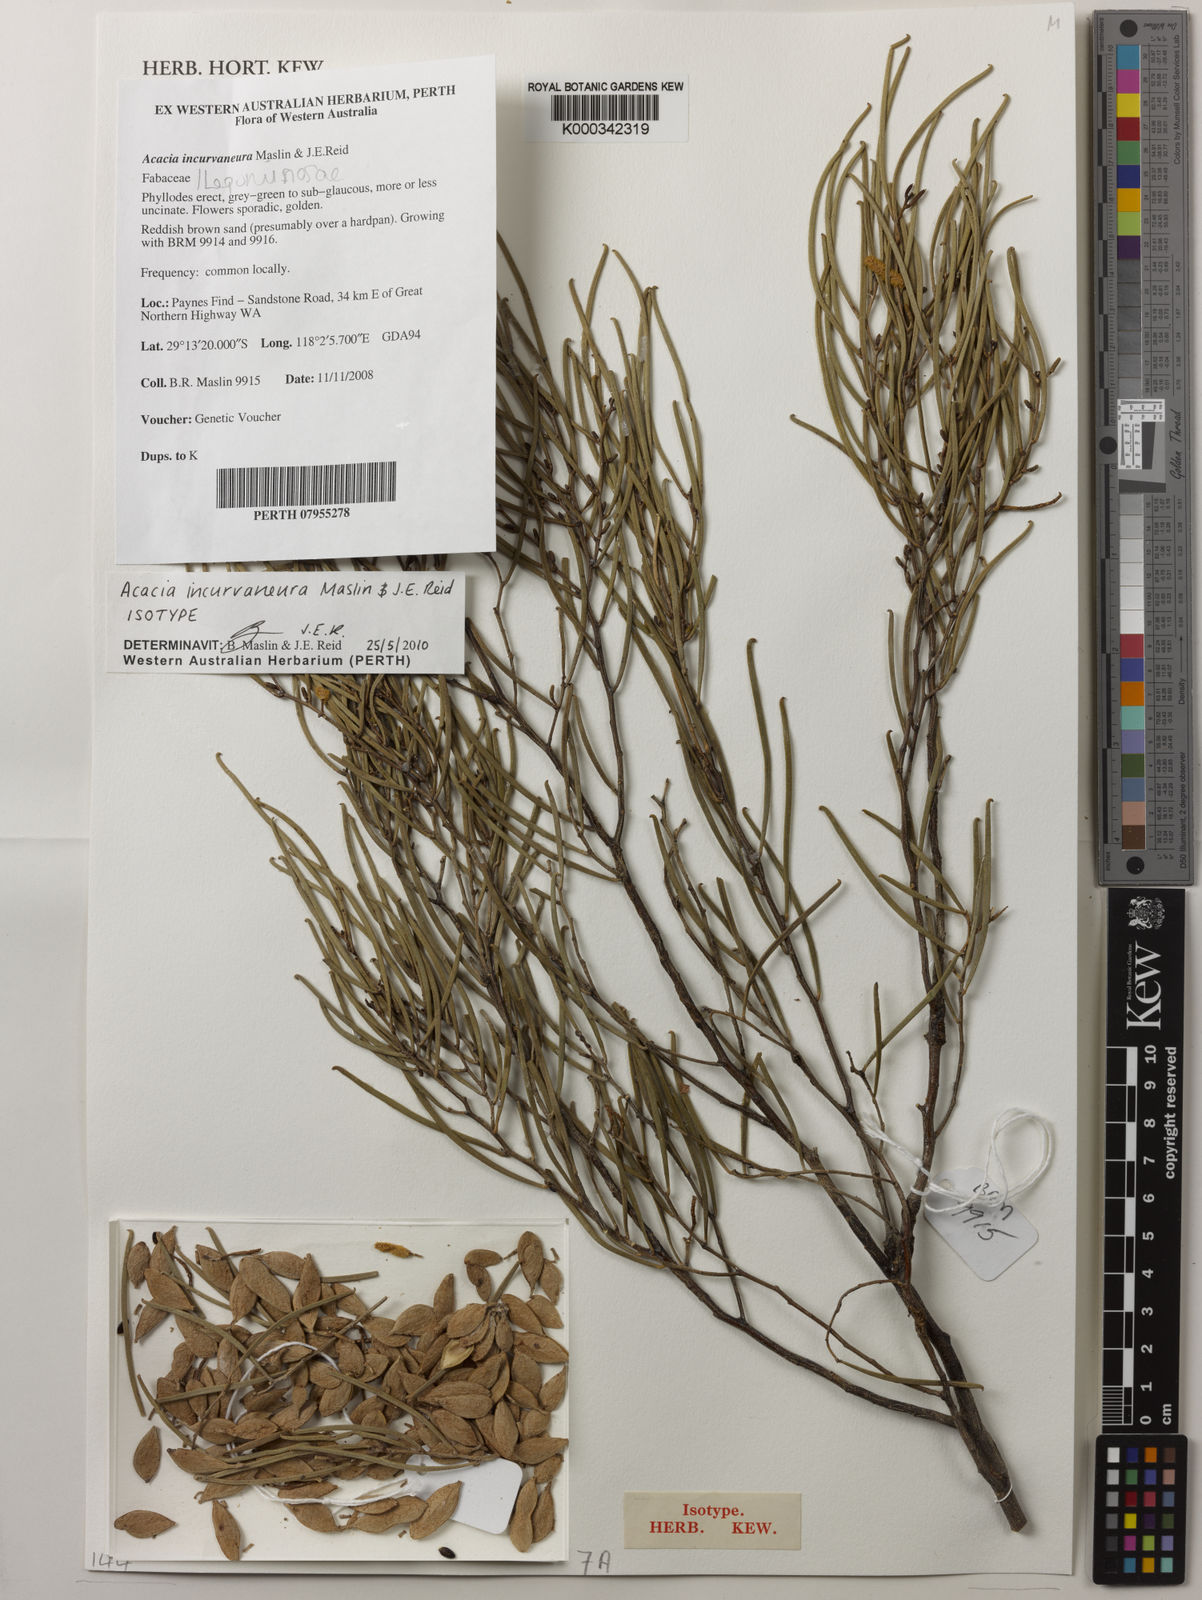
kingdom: Plantae
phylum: Tracheophyta
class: Magnoliopsida
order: Fabales
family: Fabaceae
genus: Acacia
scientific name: Acacia incurvaneura
